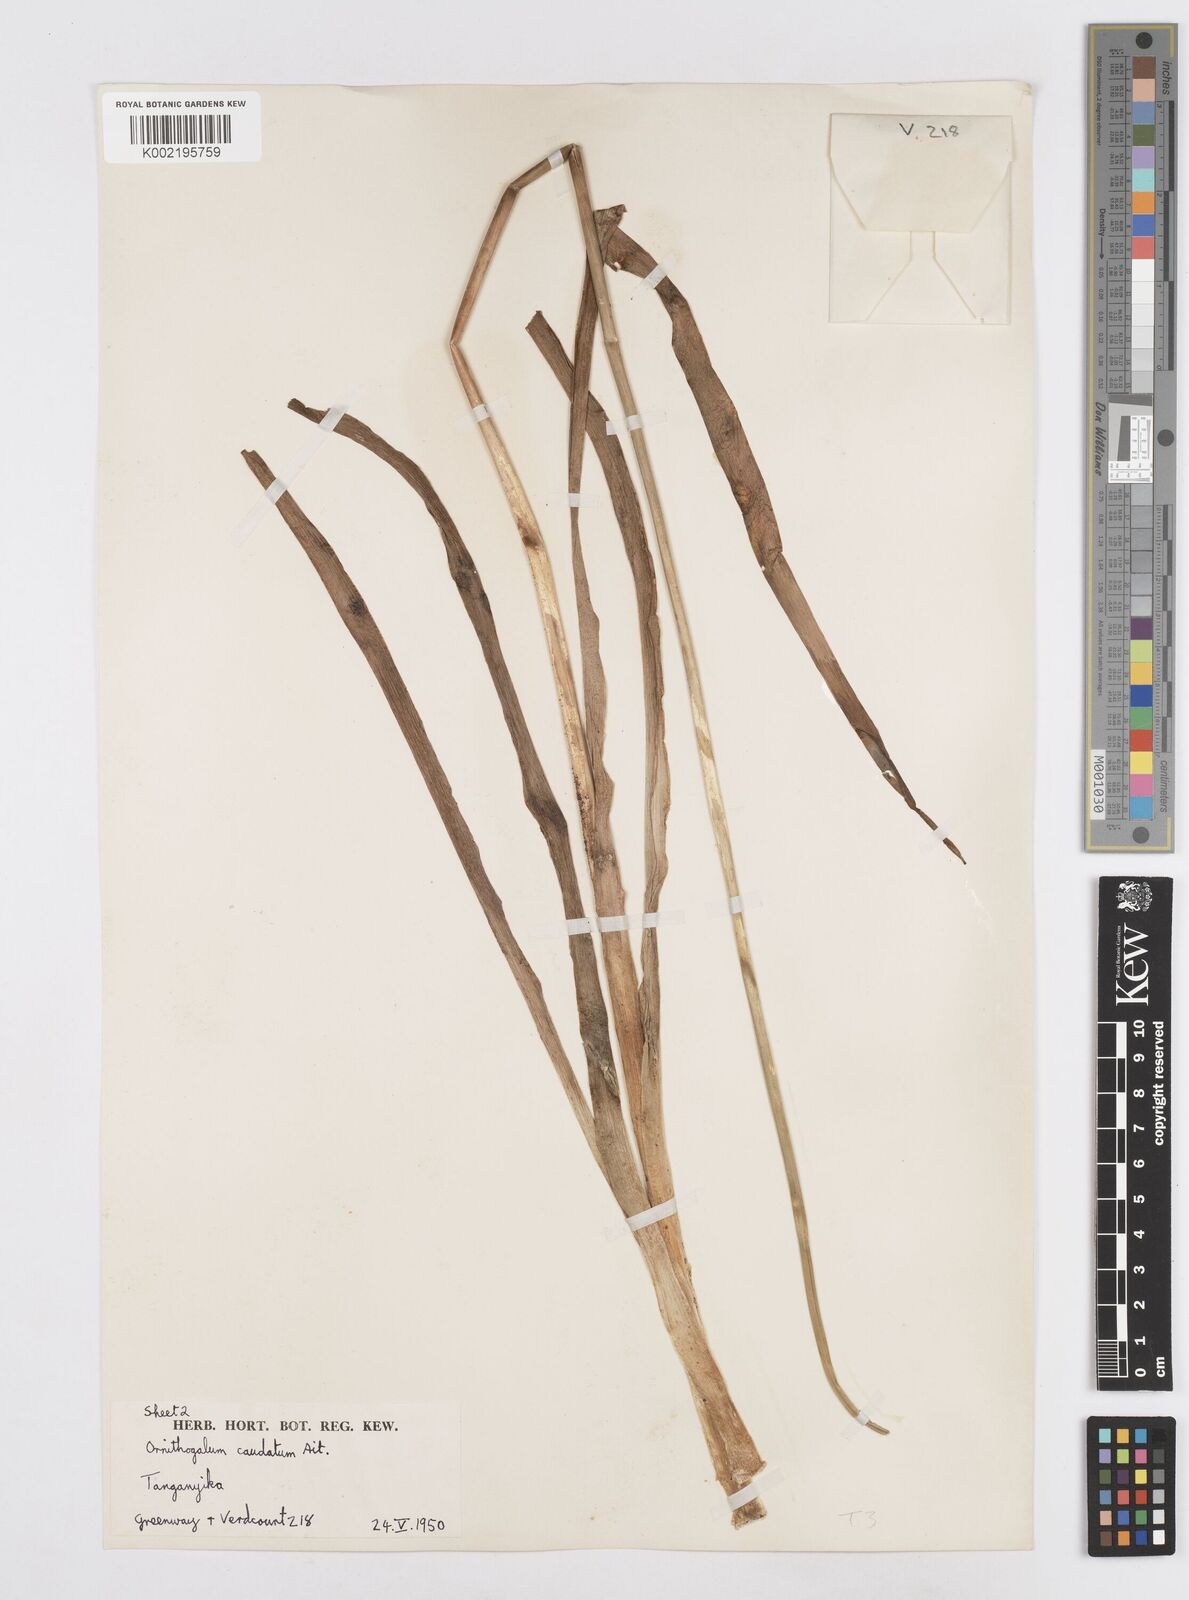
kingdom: Plantae
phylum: Tracheophyta
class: Liliopsida
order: Asparagales
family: Asparagaceae
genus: Albuca
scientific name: Albuca virens
